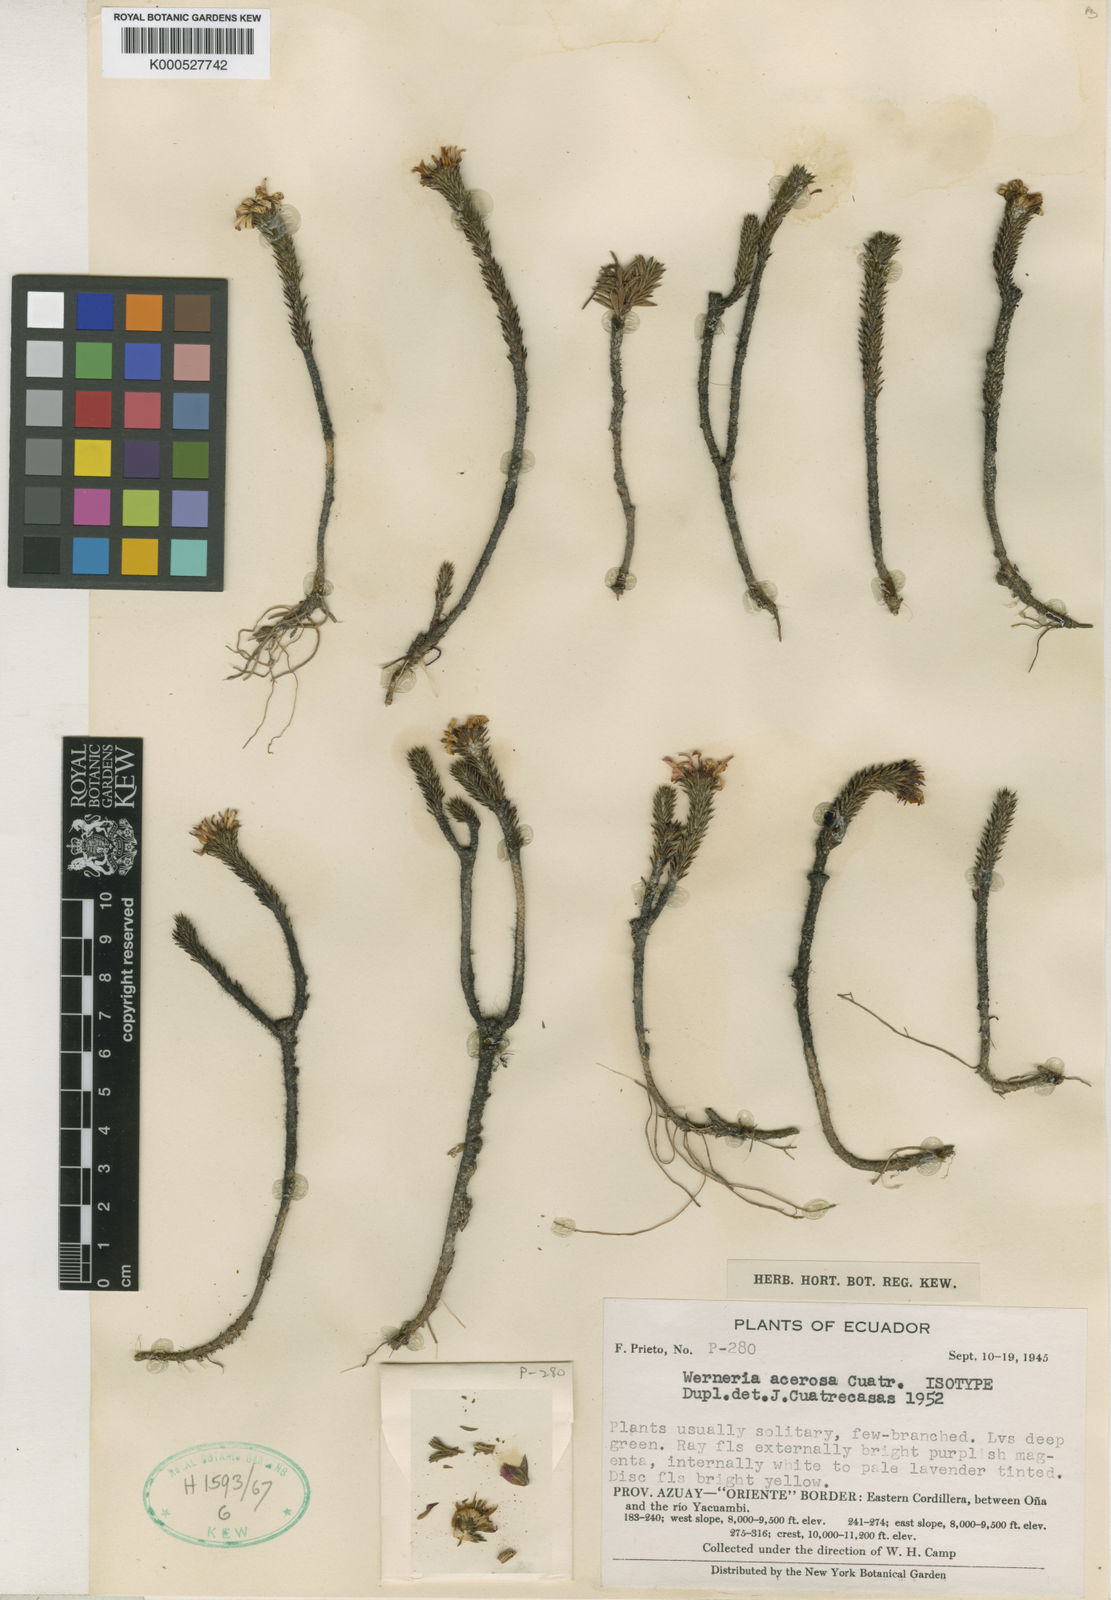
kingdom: Plantae
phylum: Tracheophyta
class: Magnoliopsida
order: Asterales
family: Asteraceae
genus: Werneria
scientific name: Werneria acerosa
